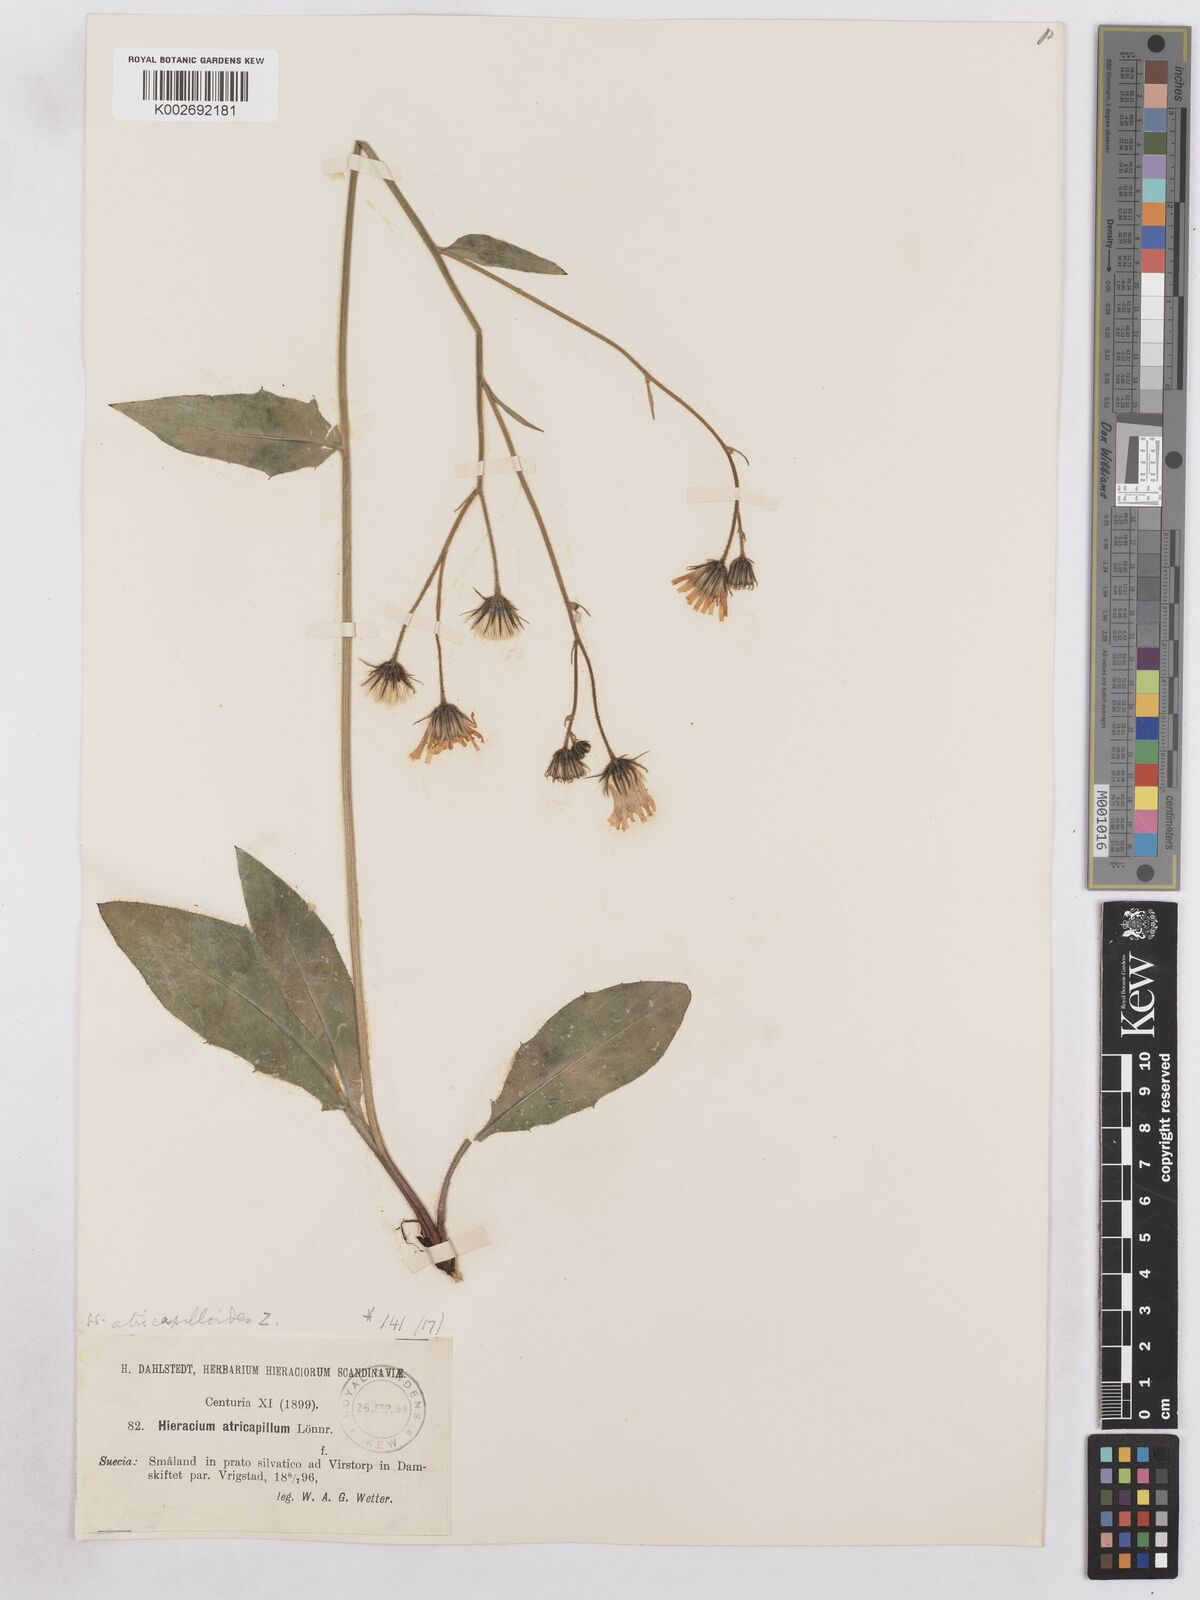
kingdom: Plantae
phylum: Tracheophyta
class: Magnoliopsida
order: Asterales
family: Asteraceae
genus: Hieracium
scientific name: Hieracium diaphanoides
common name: Fine-bracted hawkweed
